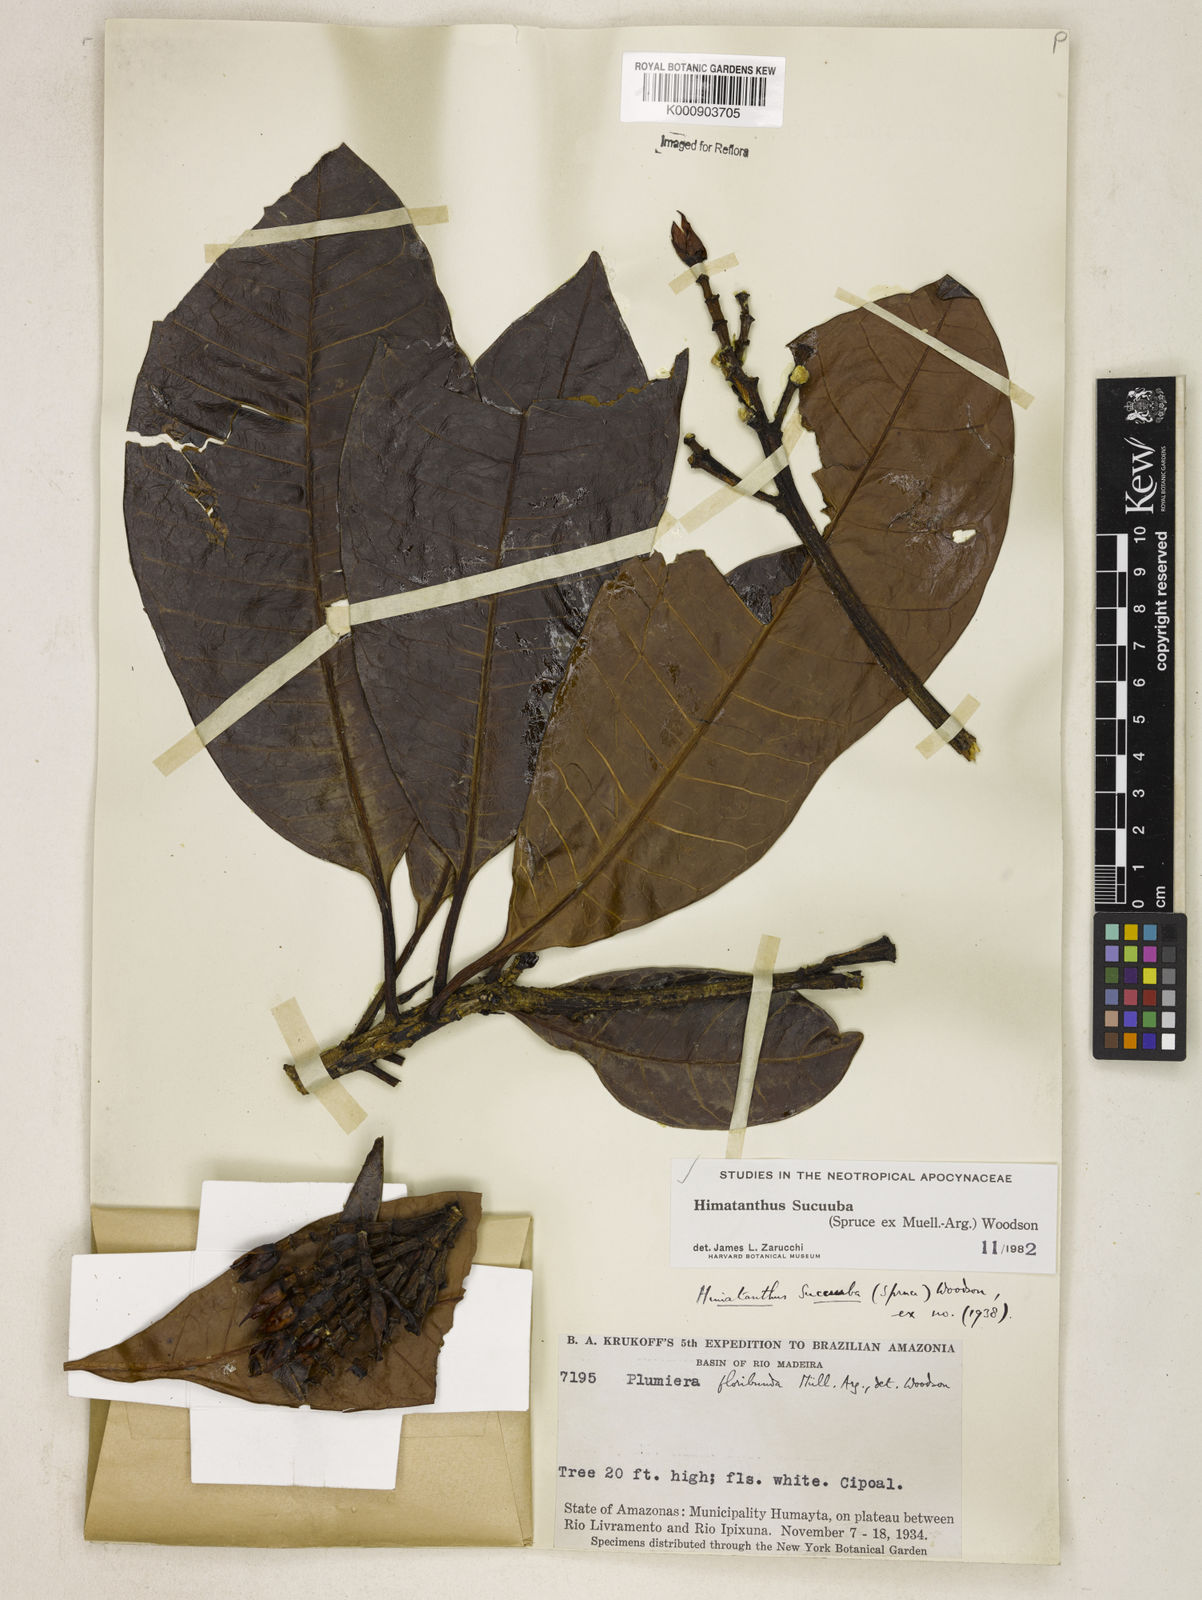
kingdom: Plantae
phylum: Tracheophyta
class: Magnoliopsida
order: Gentianales
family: Apocynaceae
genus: Himatanthus
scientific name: Himatanthus articulatus
